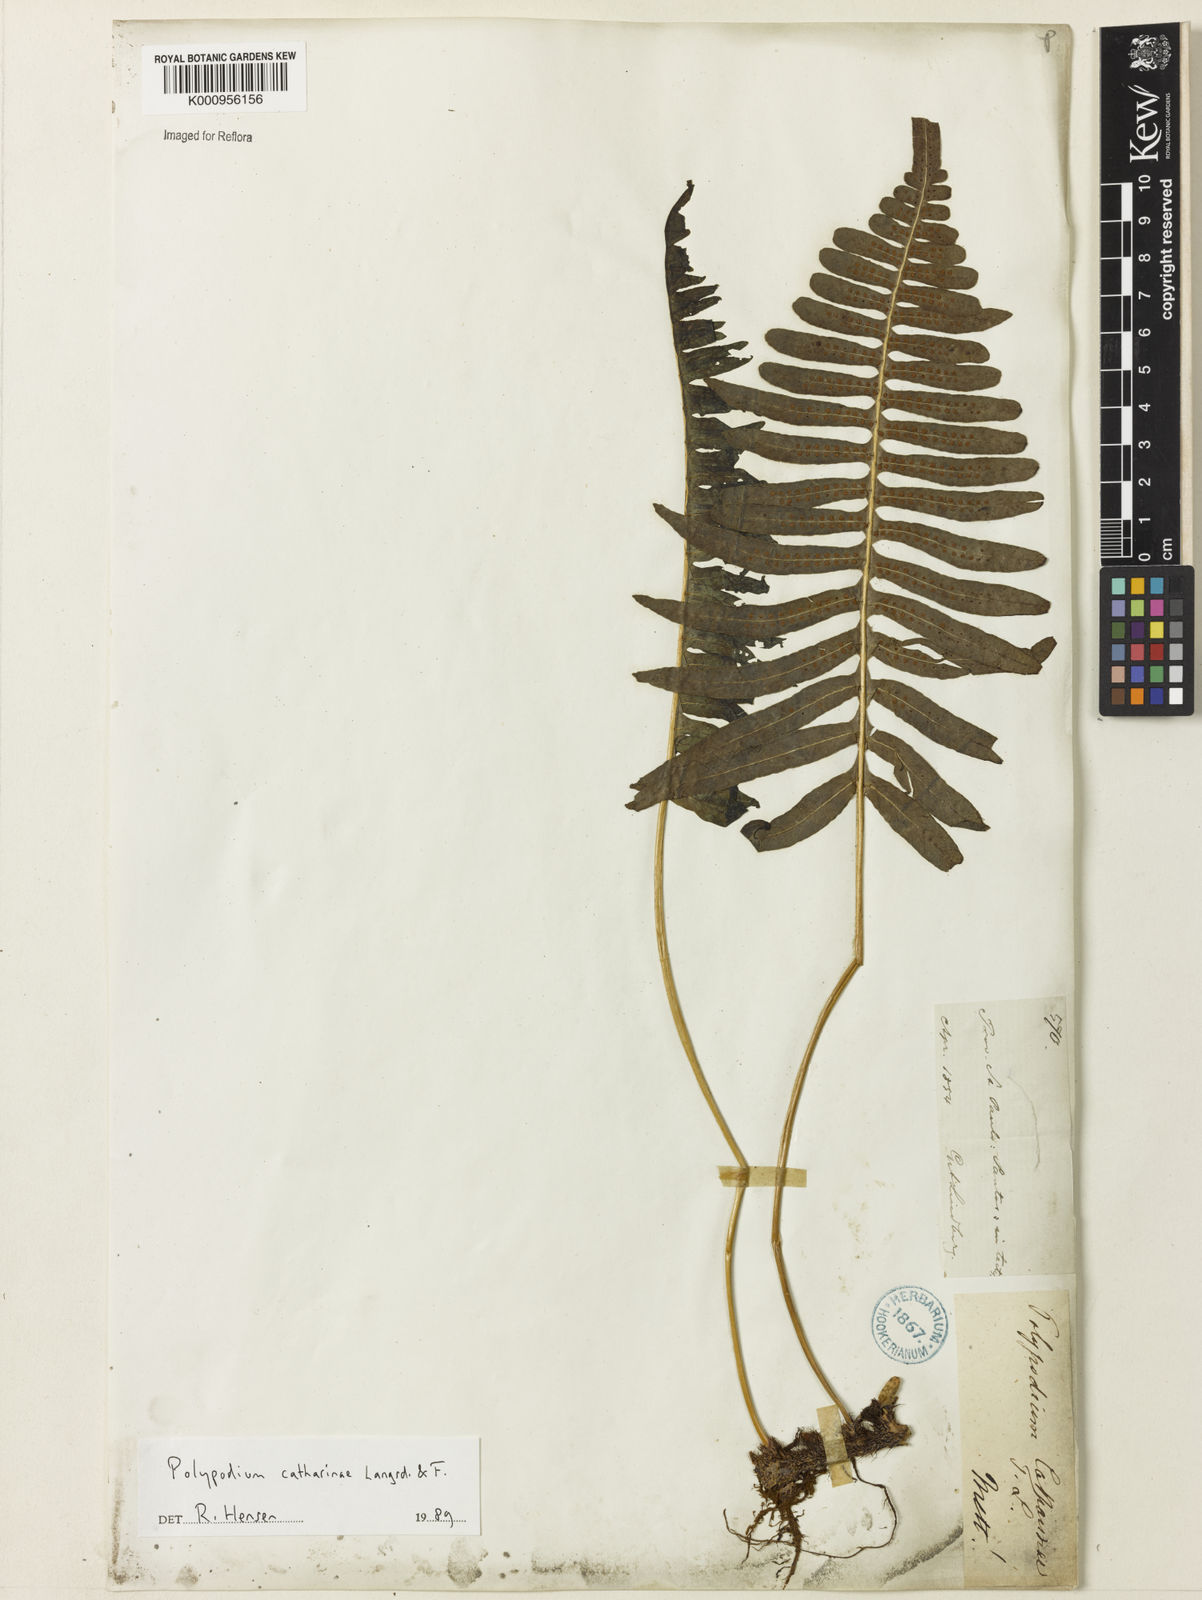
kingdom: Plantae
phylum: Tracheophyta
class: Polypodiopsida
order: Polypodiales
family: Polypodiaceae
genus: Serpocaulon
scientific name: Serpocaulon catharinae
